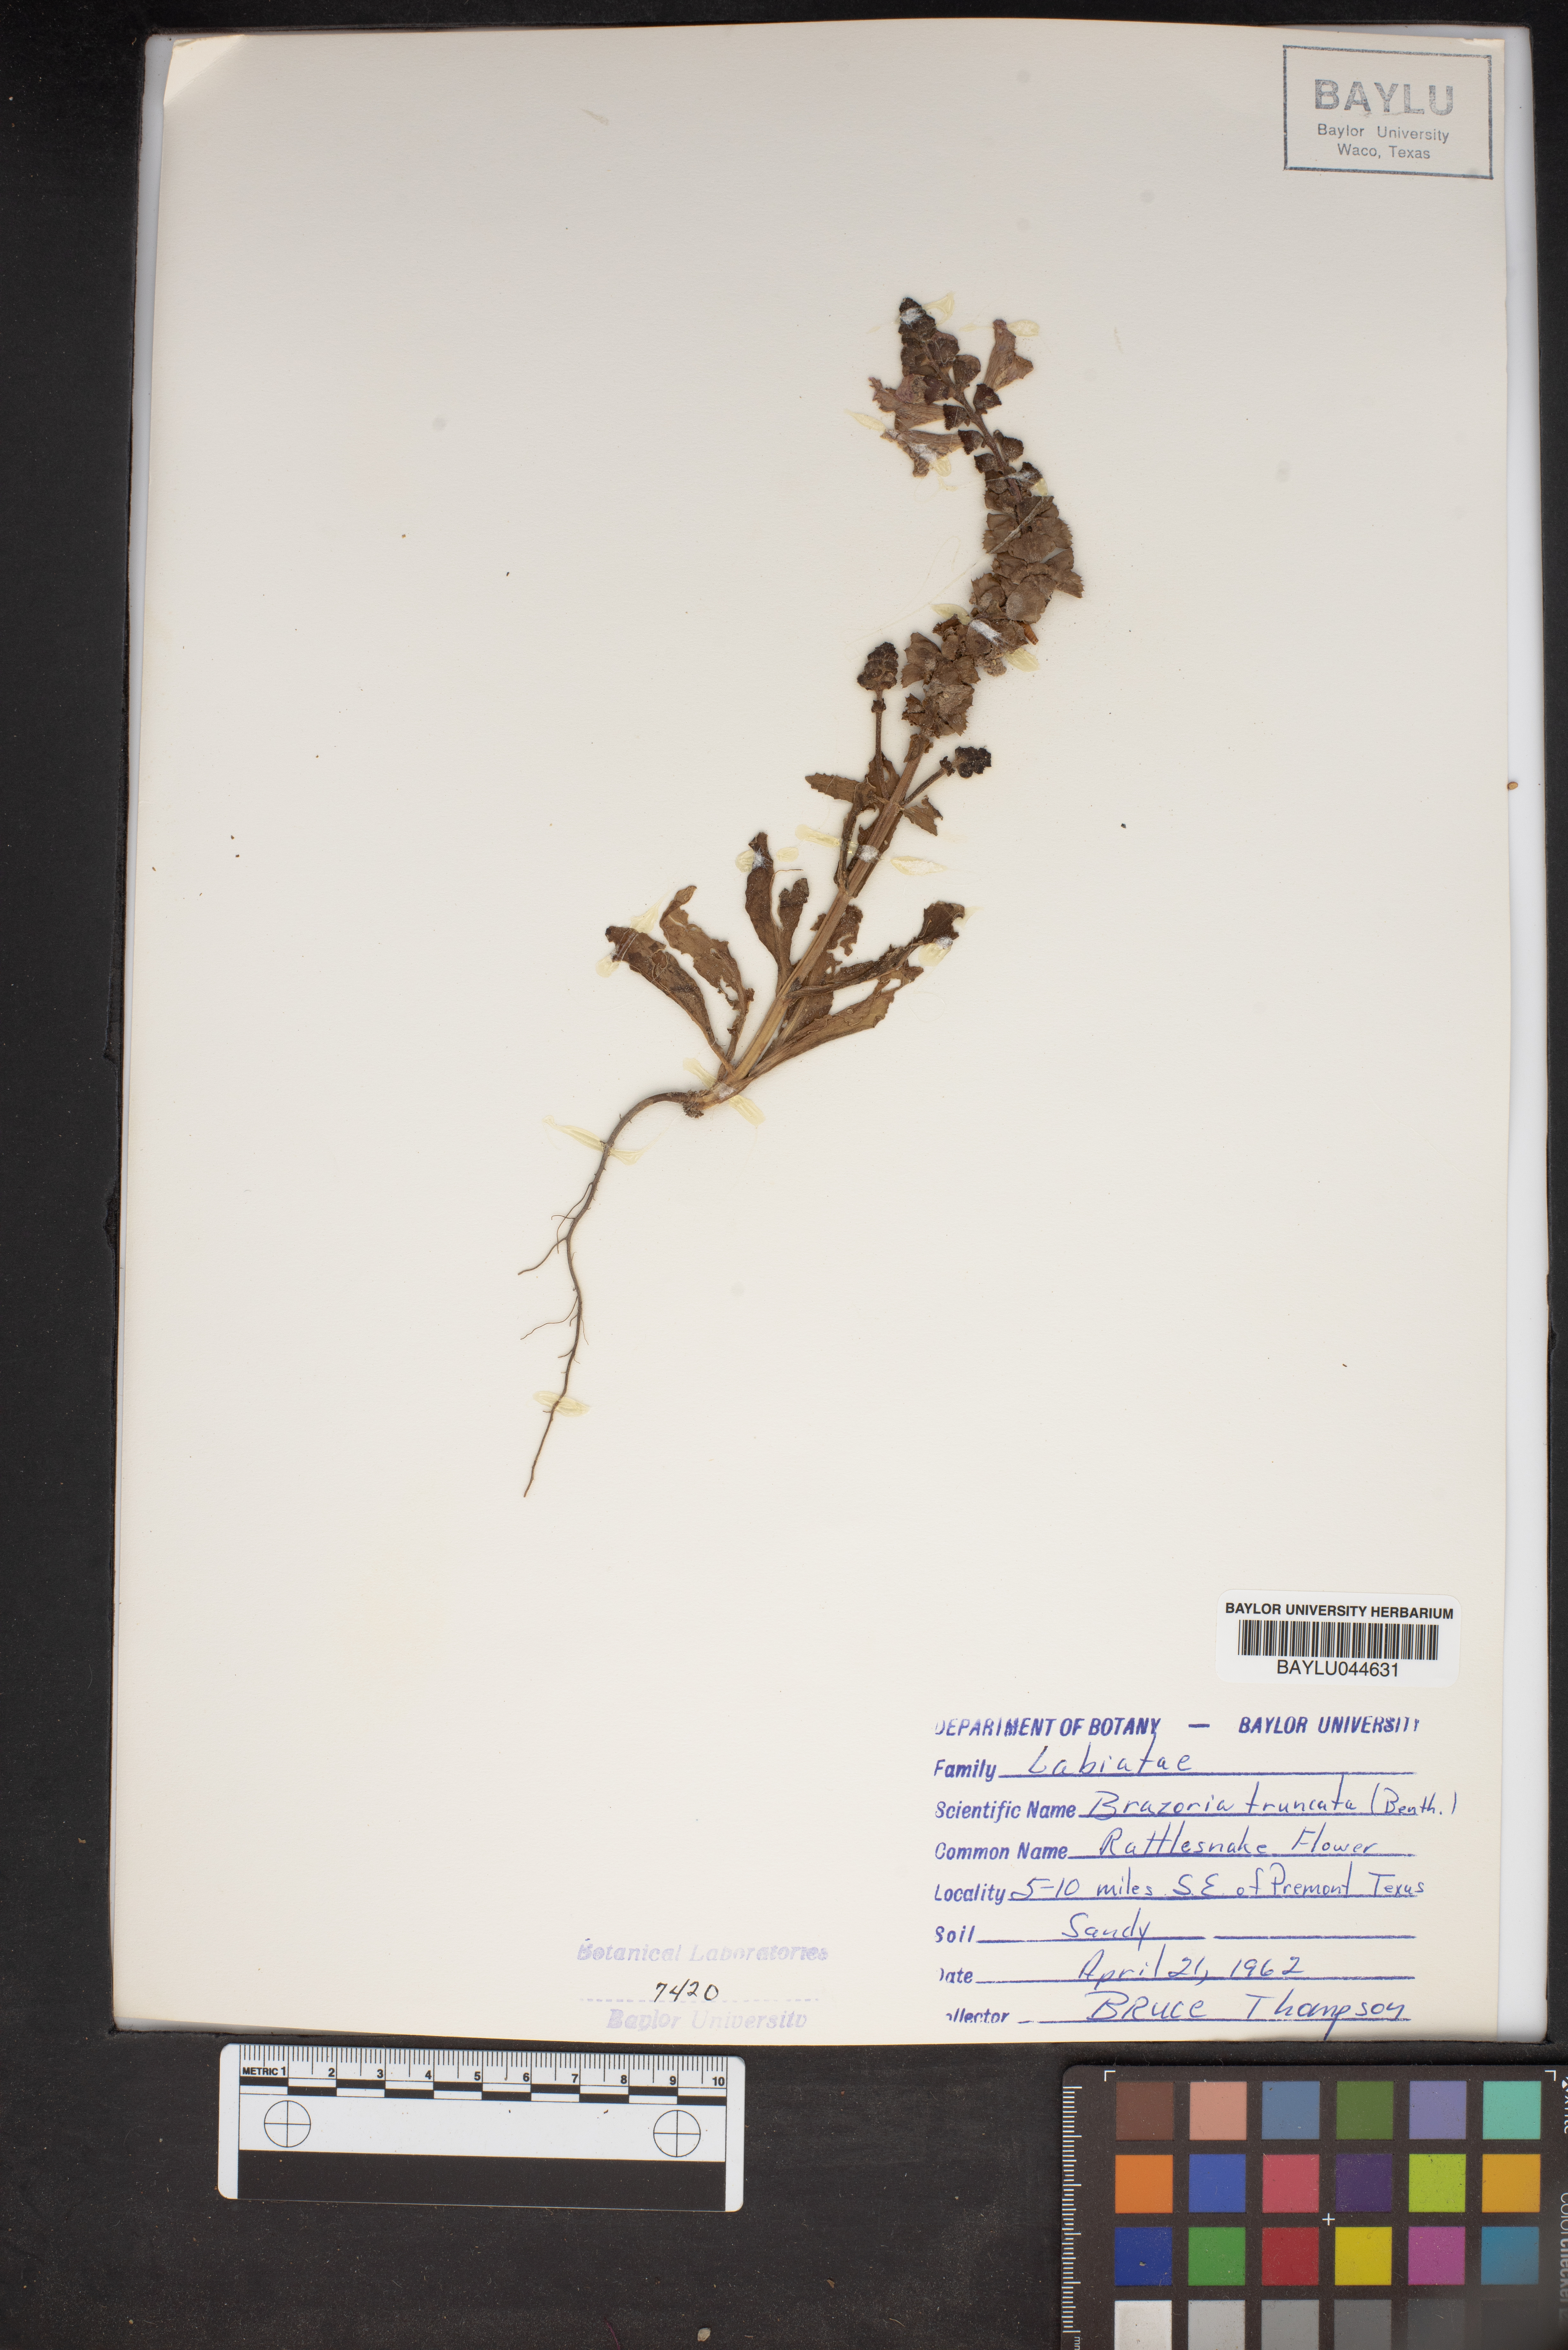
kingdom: Plantae
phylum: Tracheophyta
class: Magnoliopsida
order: Lamiales
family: Lamiaceae
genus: Brazoria
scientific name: Brazoria truncata
